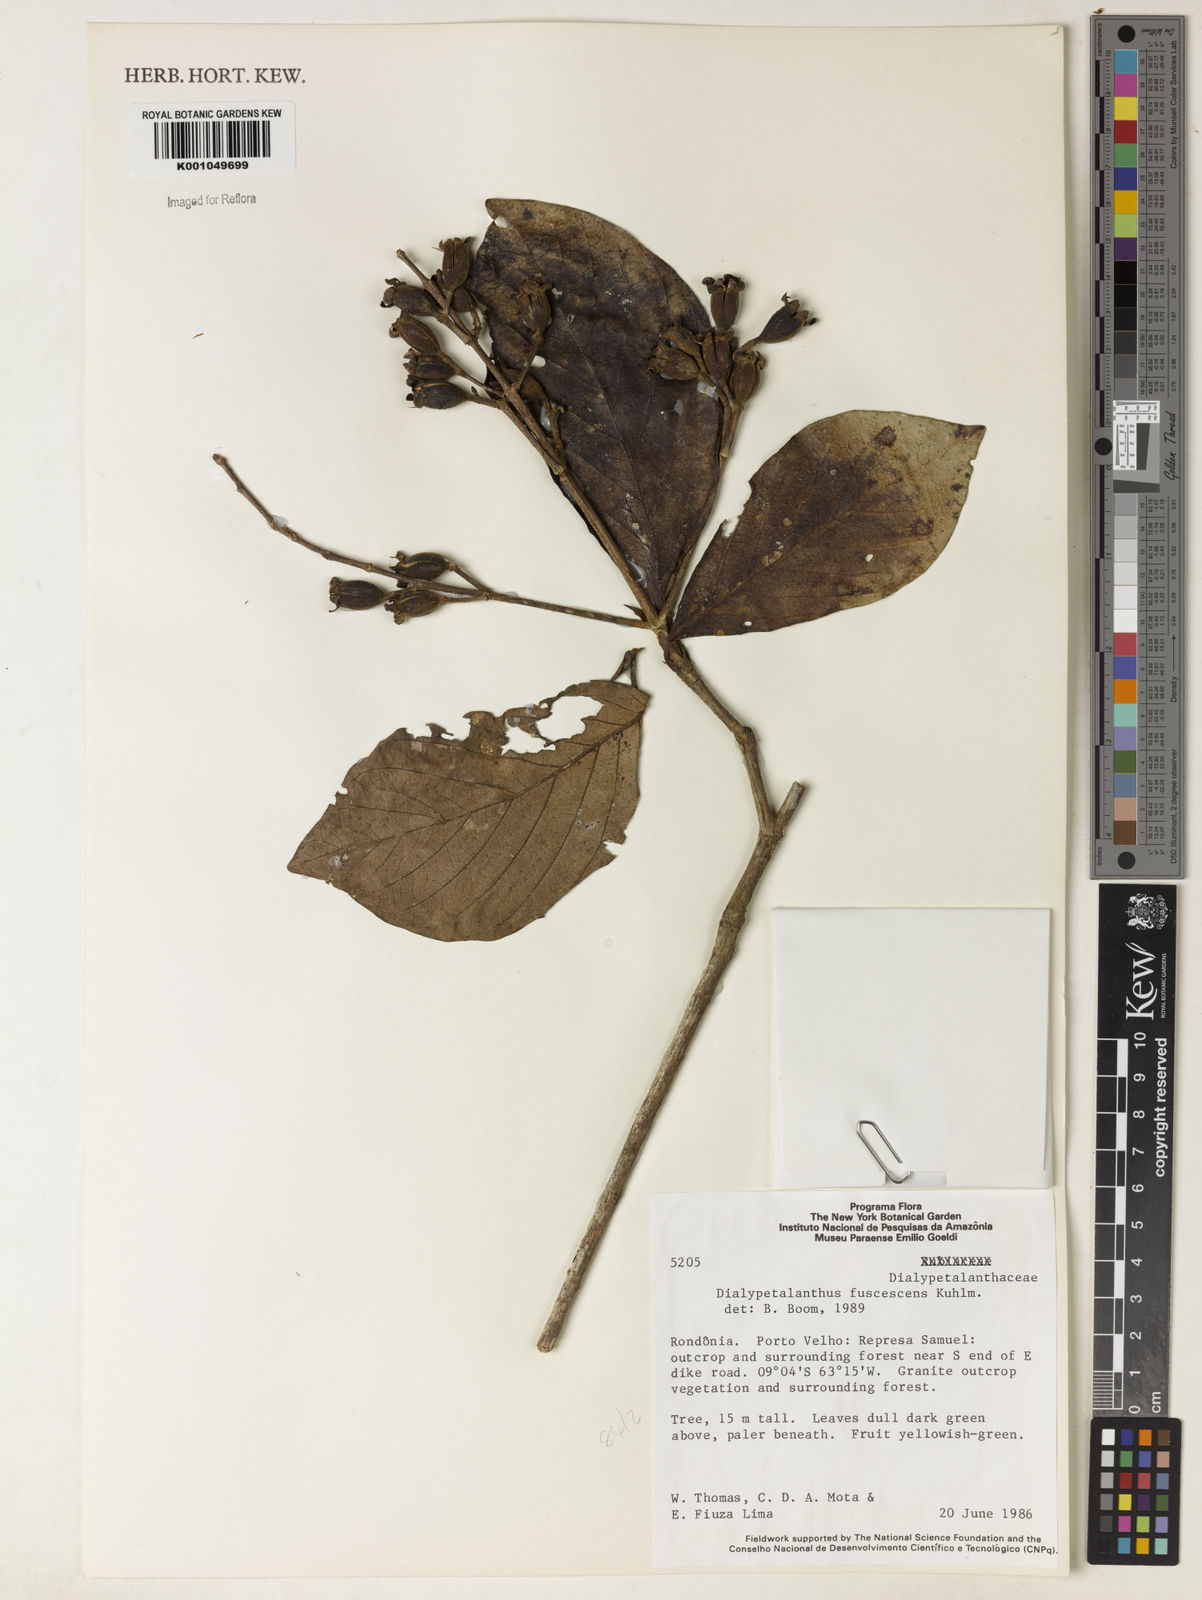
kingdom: Plantae
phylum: Tracheophyta
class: Magnoliopsida
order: Gentianales
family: Rubiaceae
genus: Dialypetalanthus
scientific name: Dialypetalanthus fuscescens
